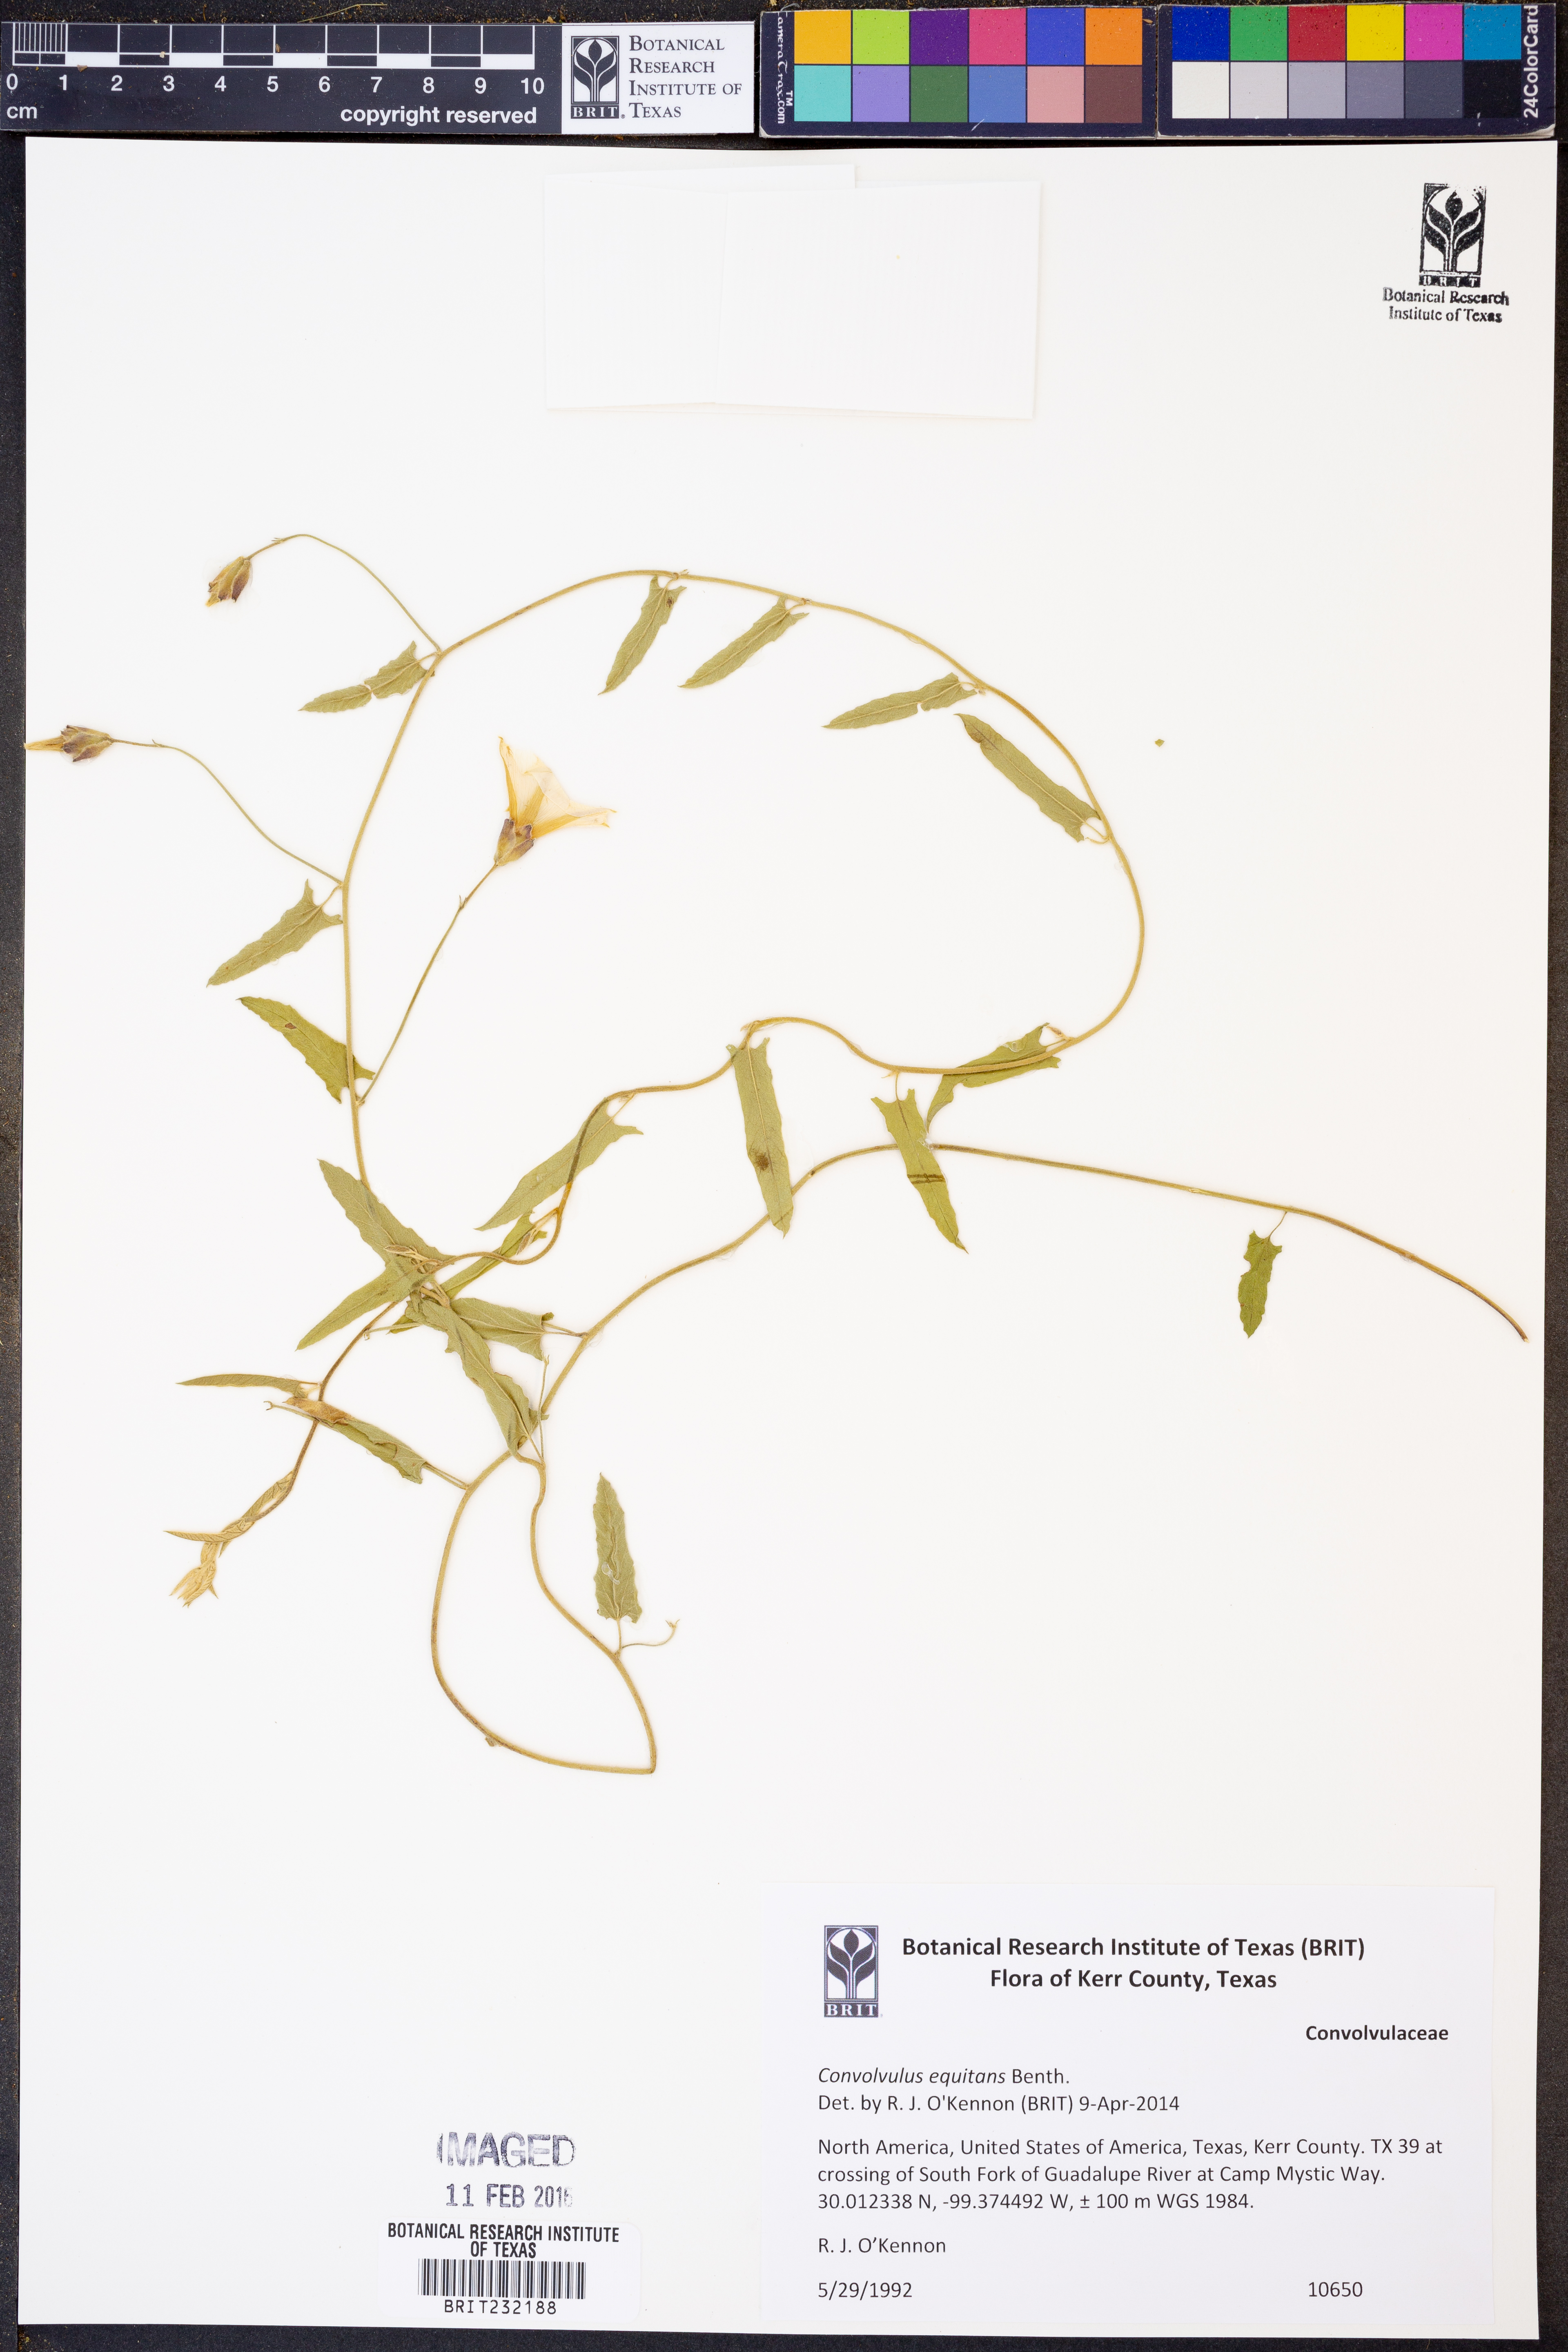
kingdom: Plantae
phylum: Tracheophyta
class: Magnoliopsida
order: Solanales
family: Convolvulaceae
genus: Convolvulus
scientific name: Convolvulus equitans
